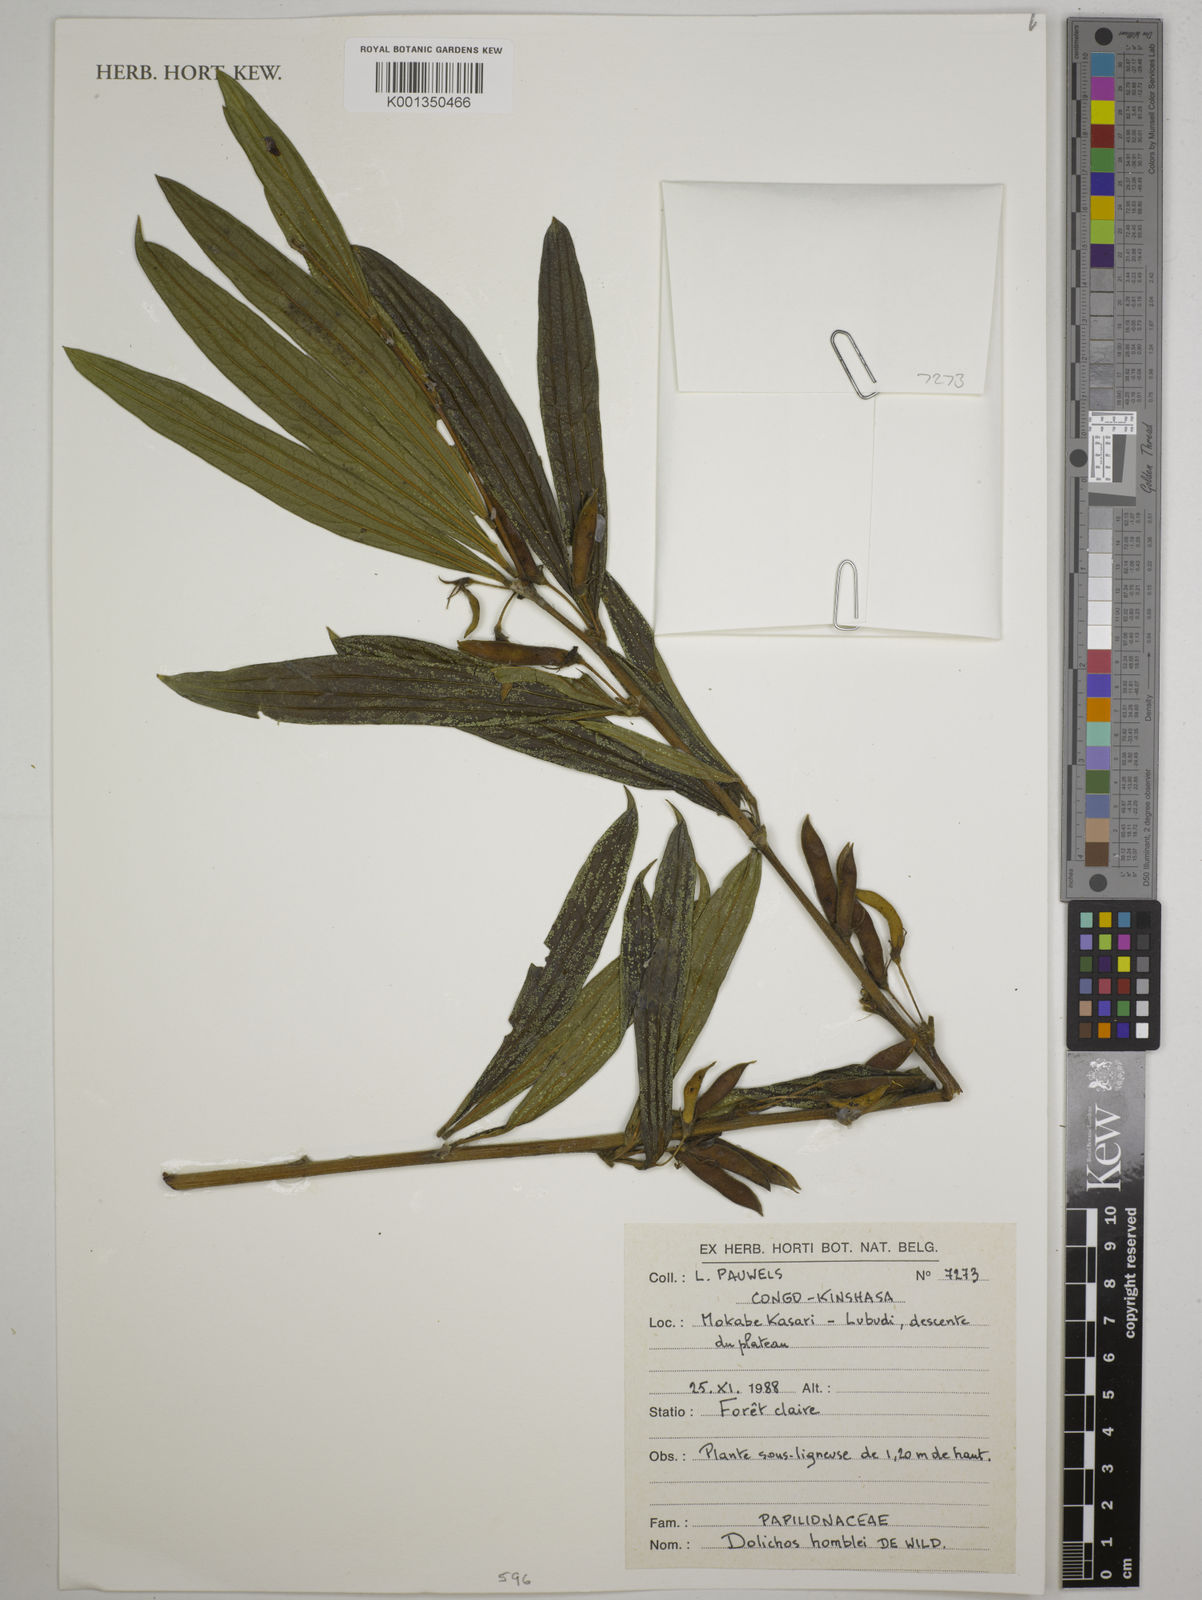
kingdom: Plantae
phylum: Tracheophyta
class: Magnoliopsida
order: Fabales
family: Fabaceae
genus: Dolichos
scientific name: Dolichos homblei
